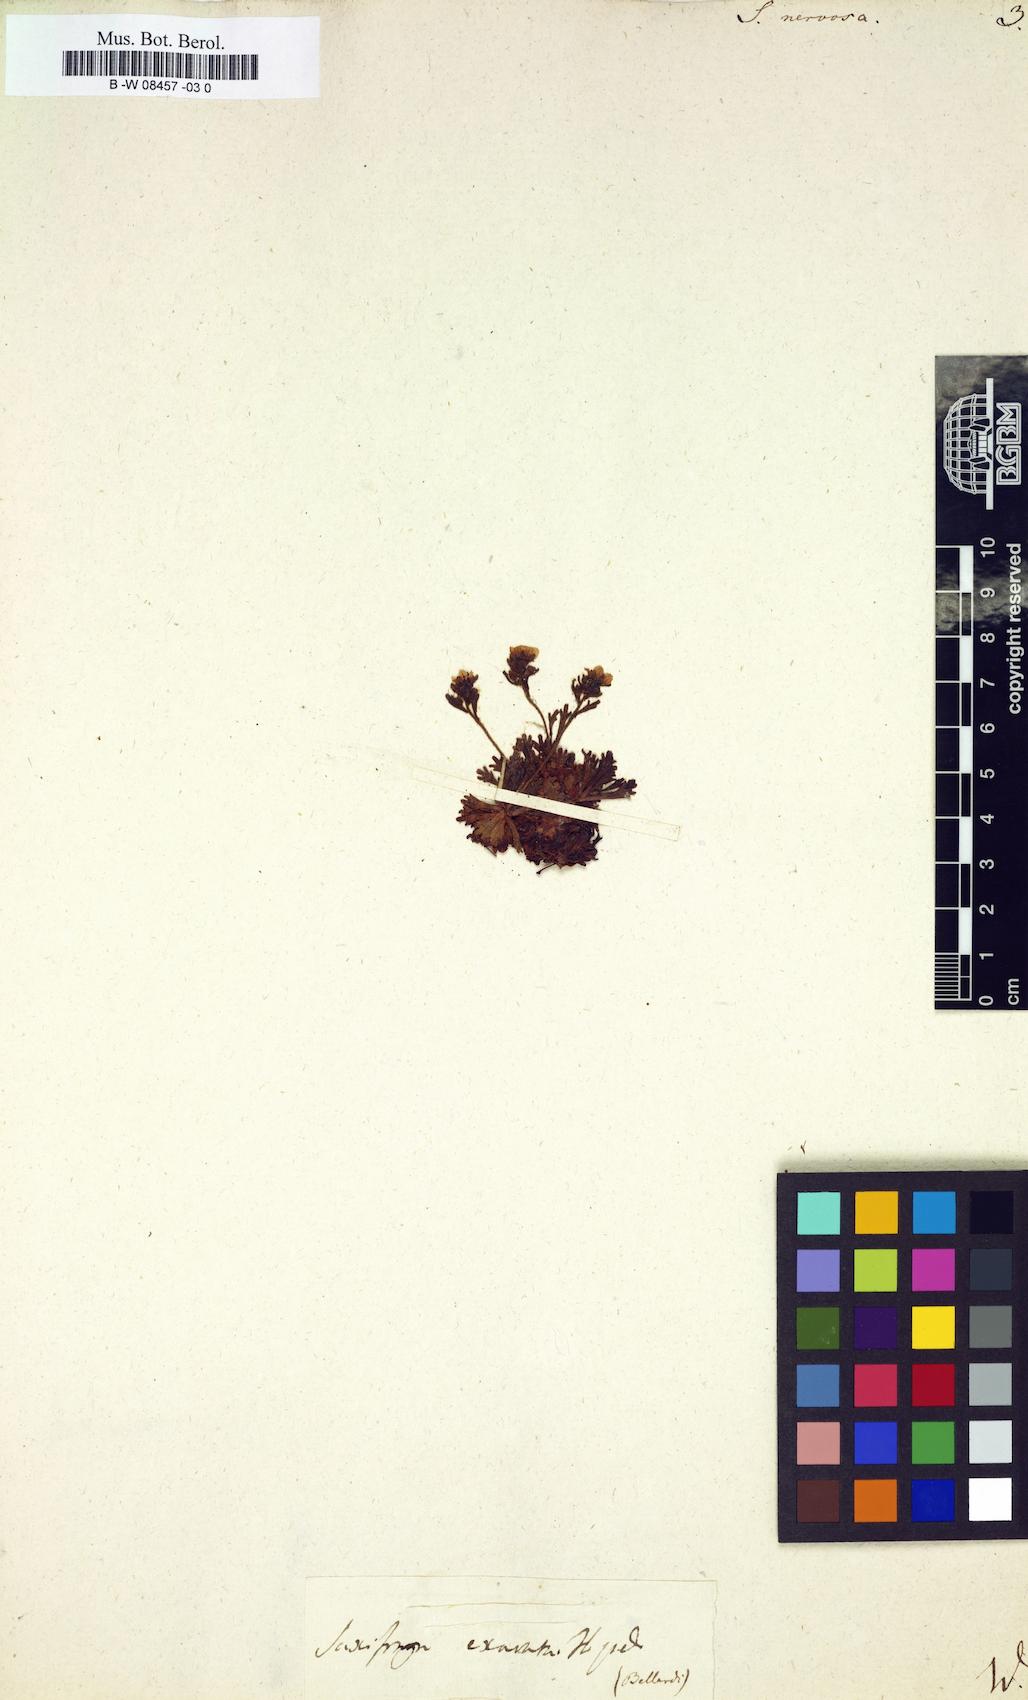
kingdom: Plantae
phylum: Tracheophyta
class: Magnoliopsida
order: Saxifragales
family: Saxifragaceae
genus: Saxifraga
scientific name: Saxifraga
